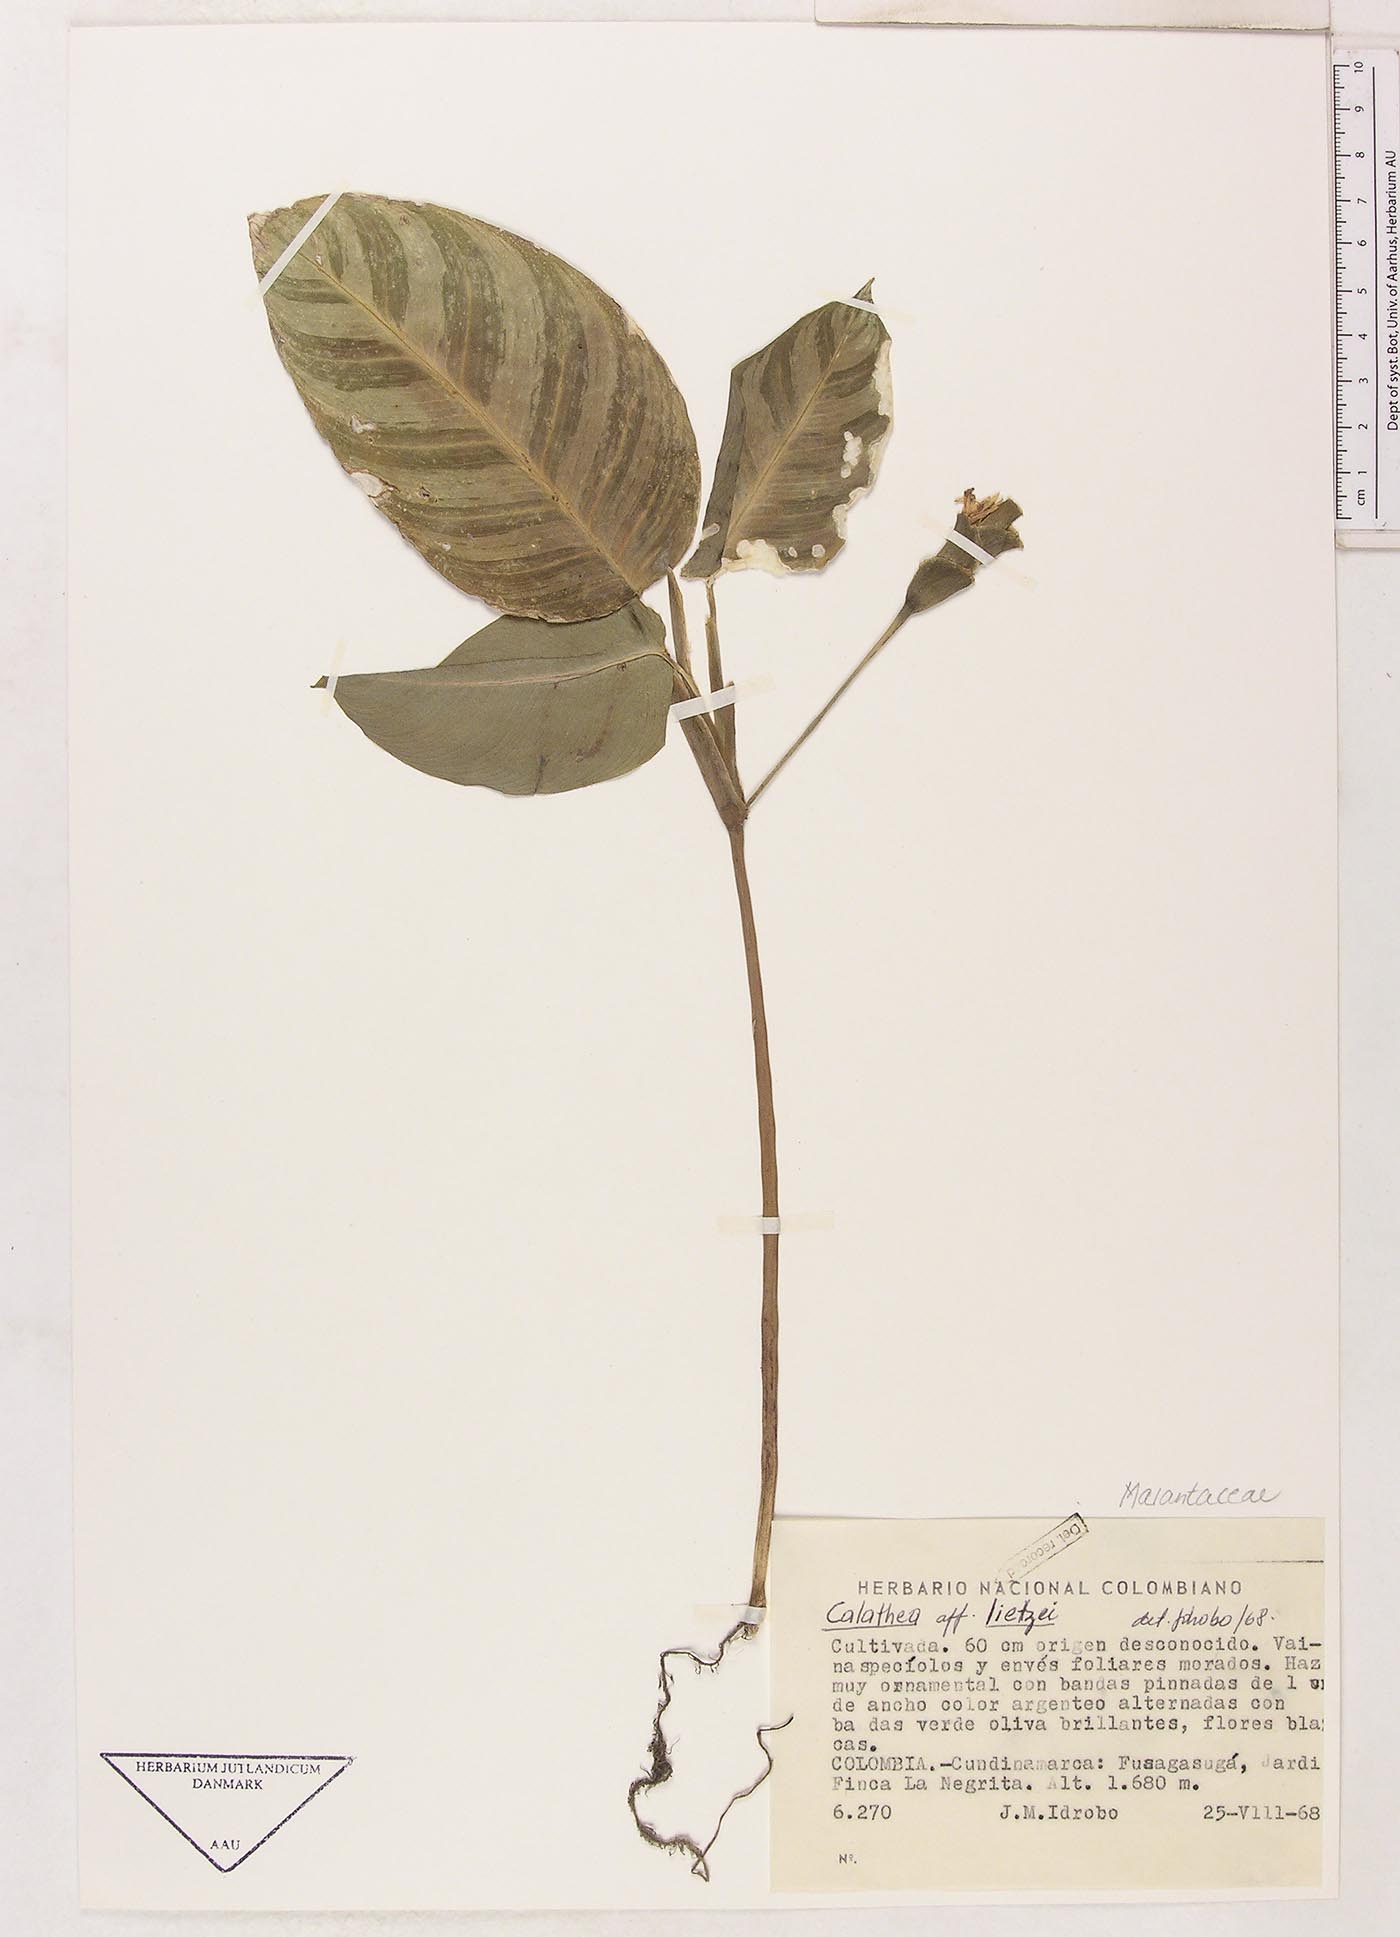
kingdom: Plantae
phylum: Tracheophyta
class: Liliopsida
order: Zingiberales
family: Marantaceae
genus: Goeppertia
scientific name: Goeppertia lietzei
